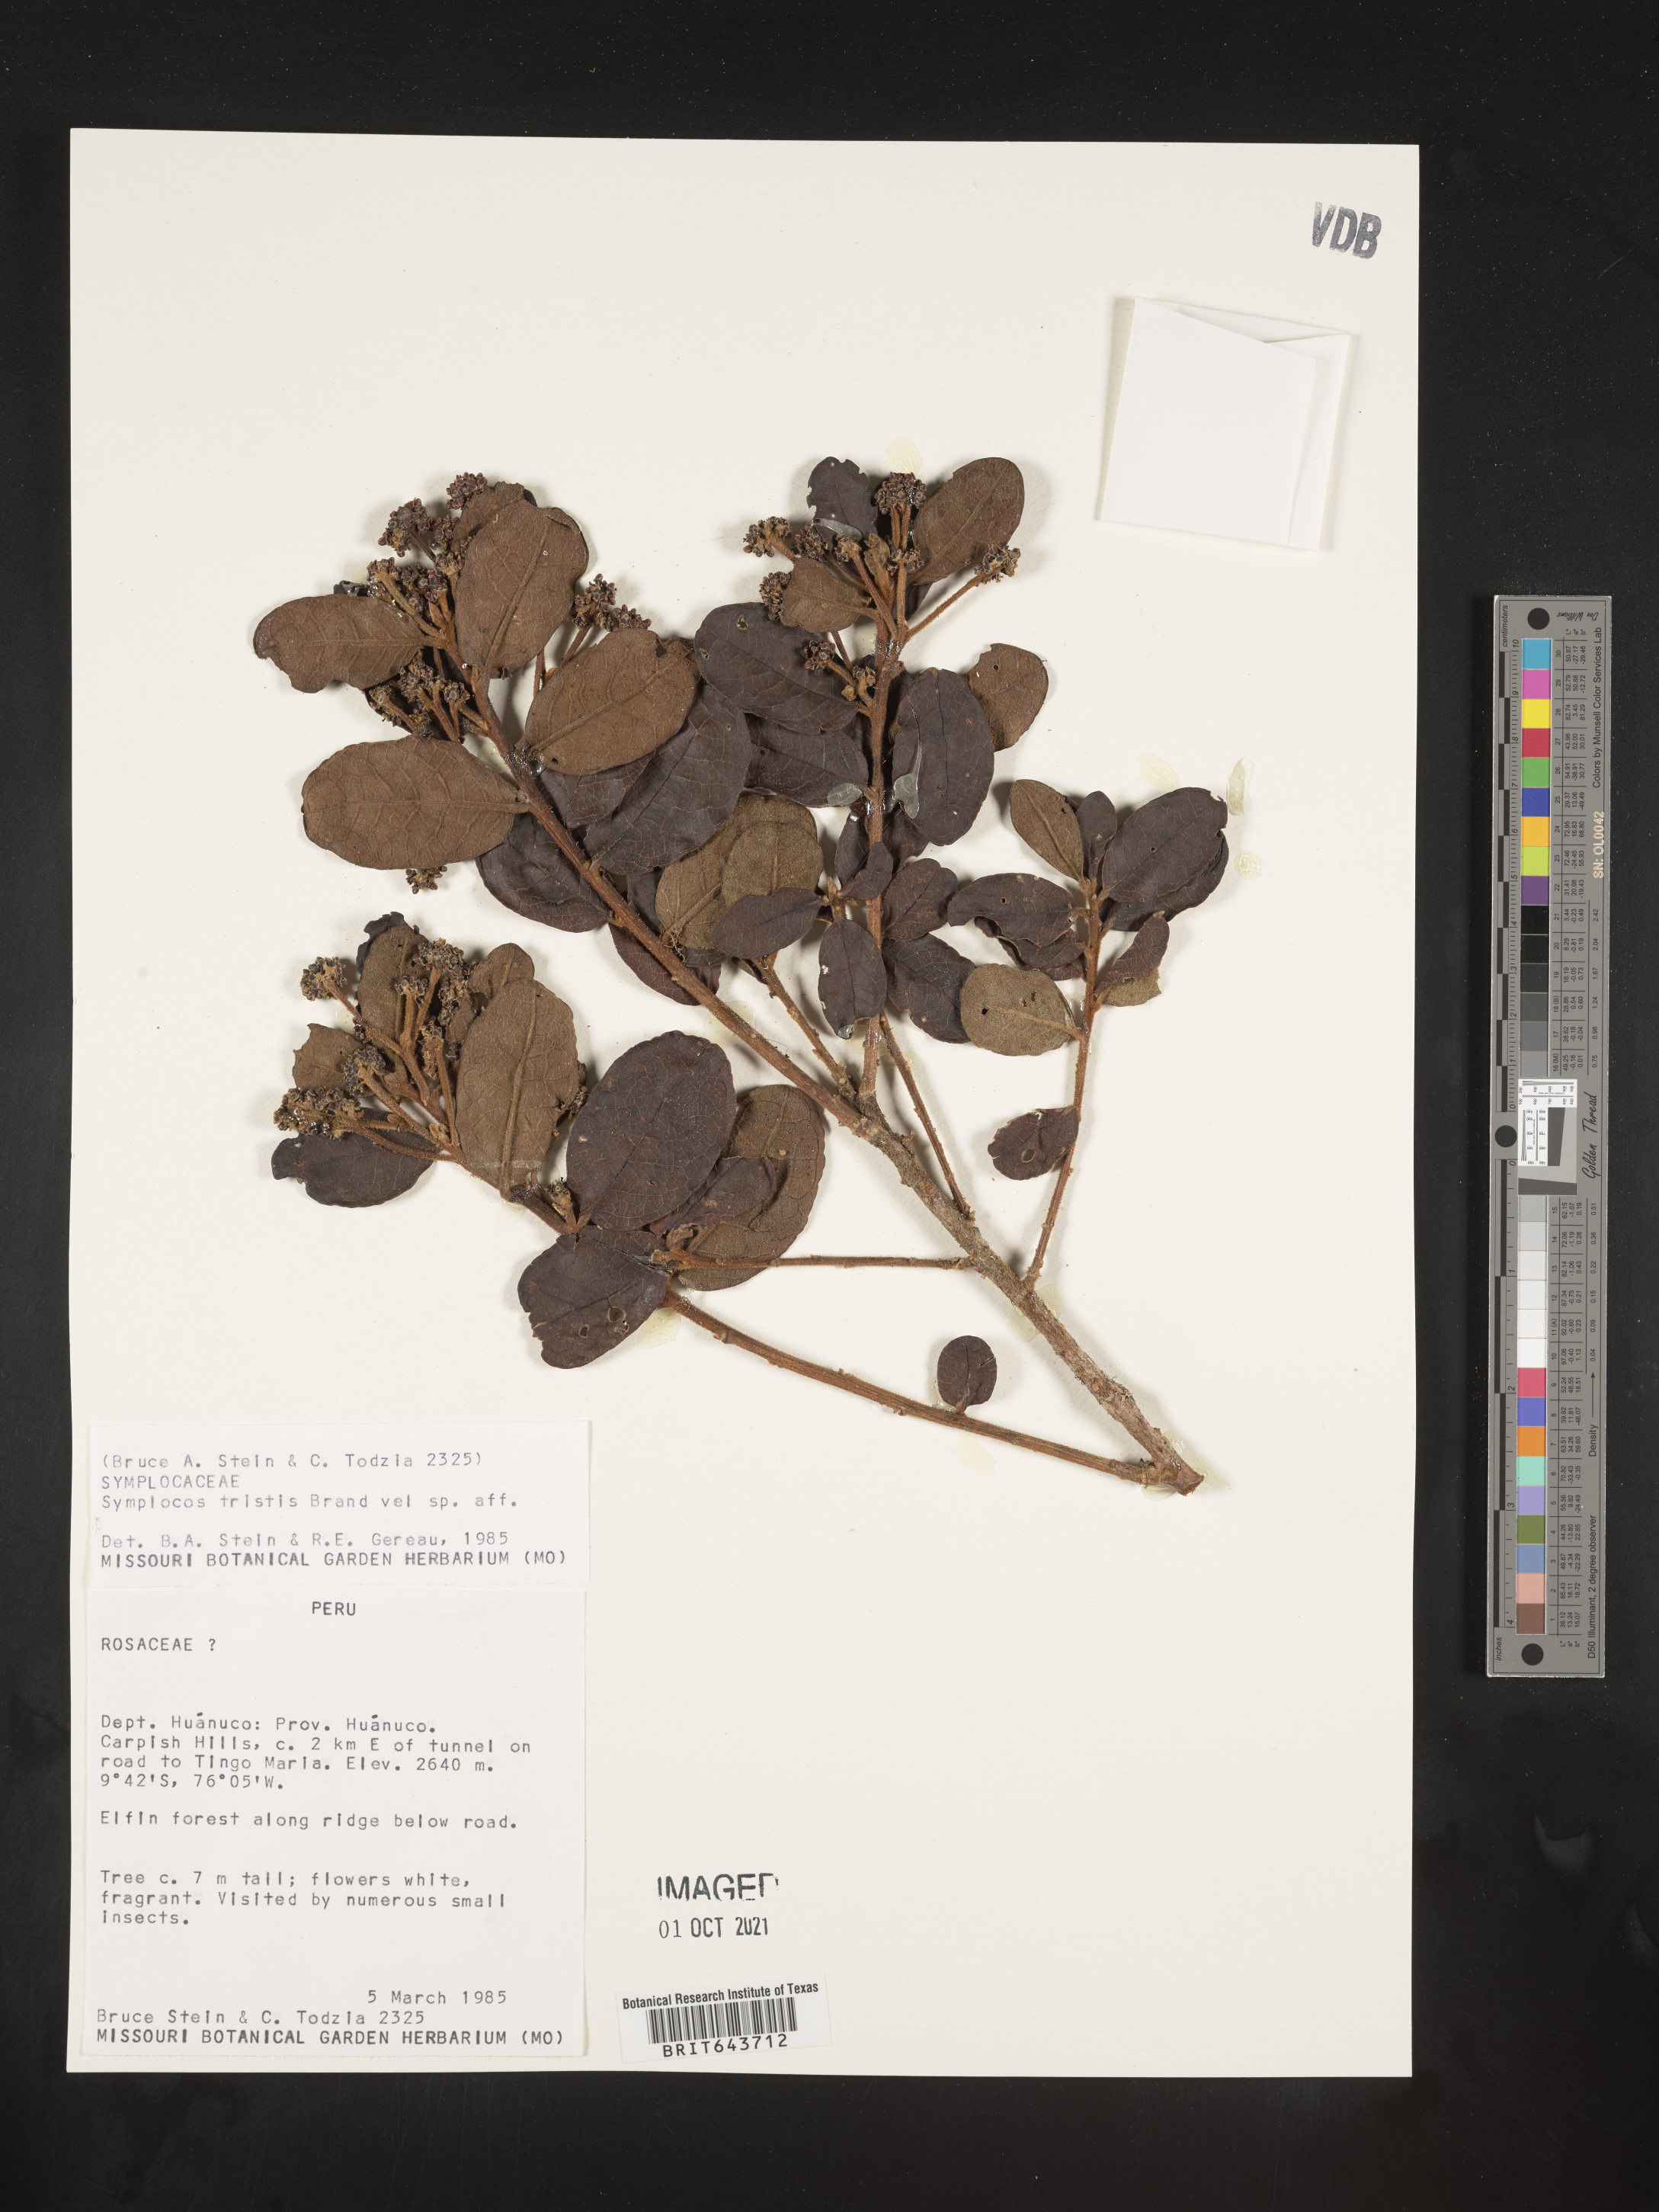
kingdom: Plantae
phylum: Tracheophyta
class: Magnoliopsida
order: Ericales
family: Symplocaceae
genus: Symplocos
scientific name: Symplocos
